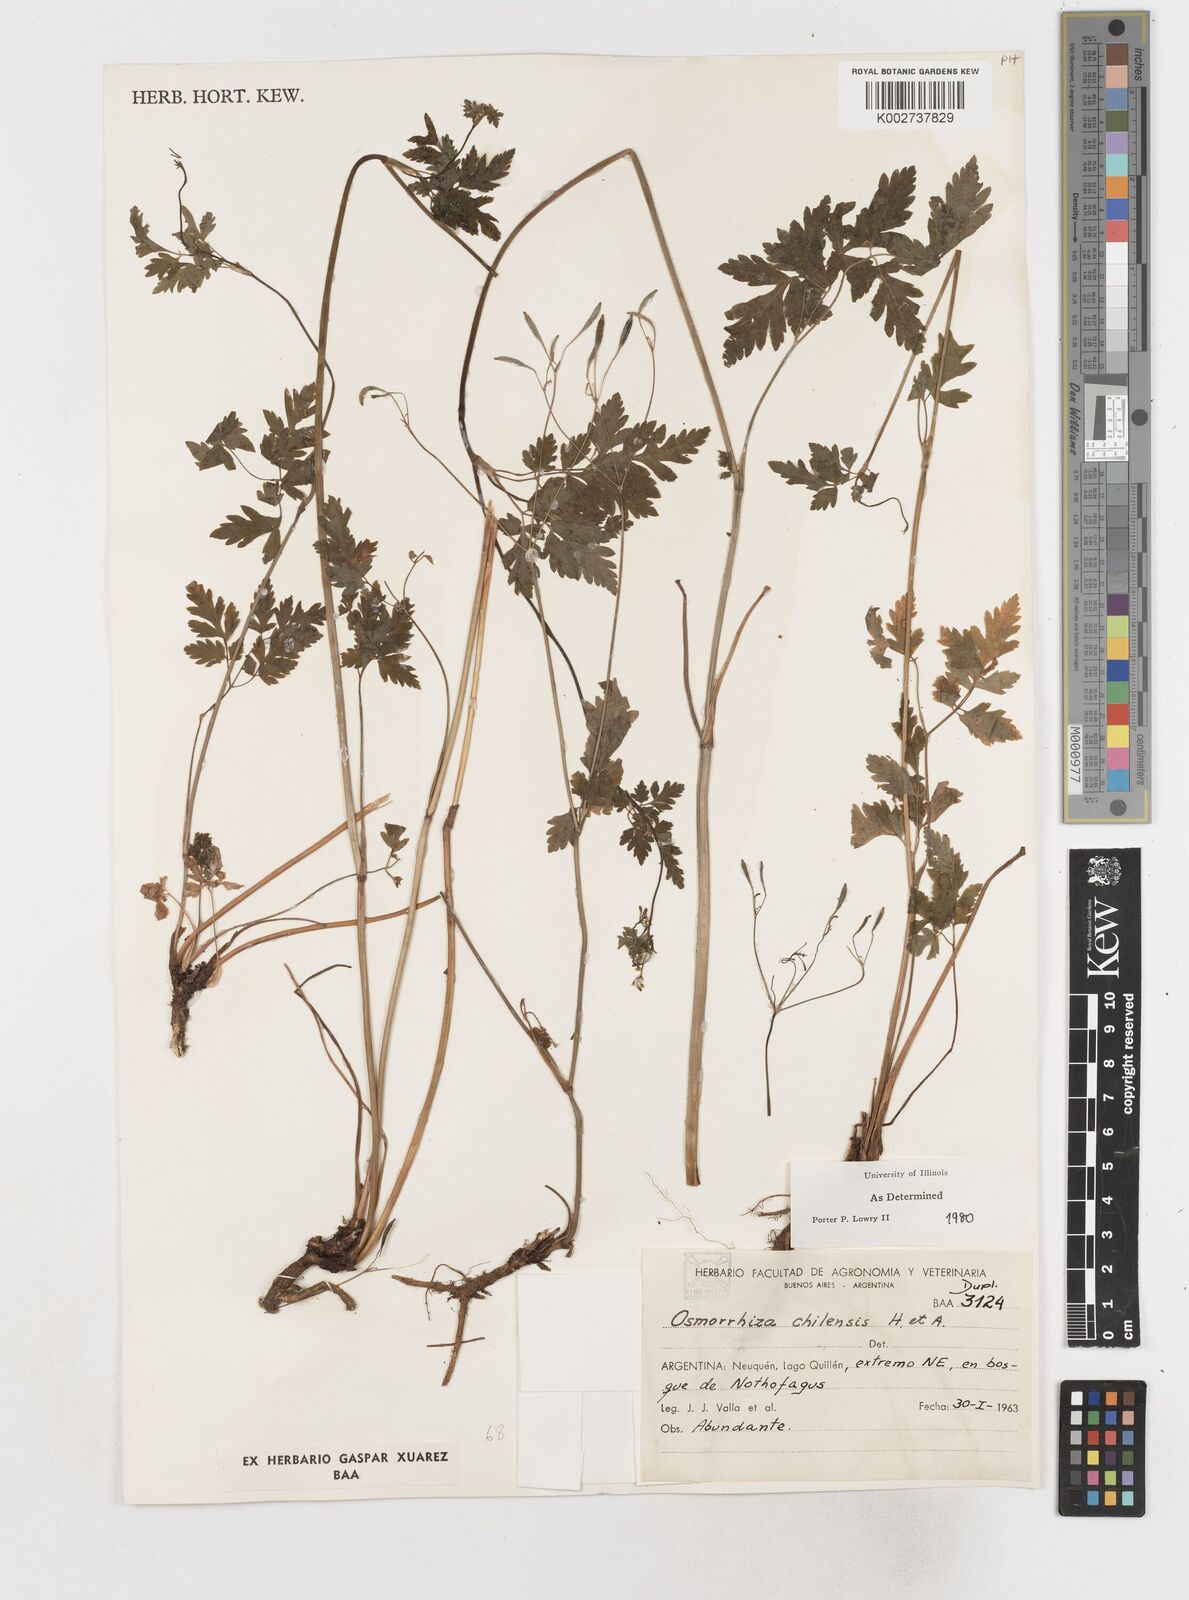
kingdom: Plantae
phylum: Tracheophyta
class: Magnoliopsida
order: Apiales
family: Apiaceae
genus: Osmorhiza
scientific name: Osmorhiza berteroi
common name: Mountain sweet cicely
